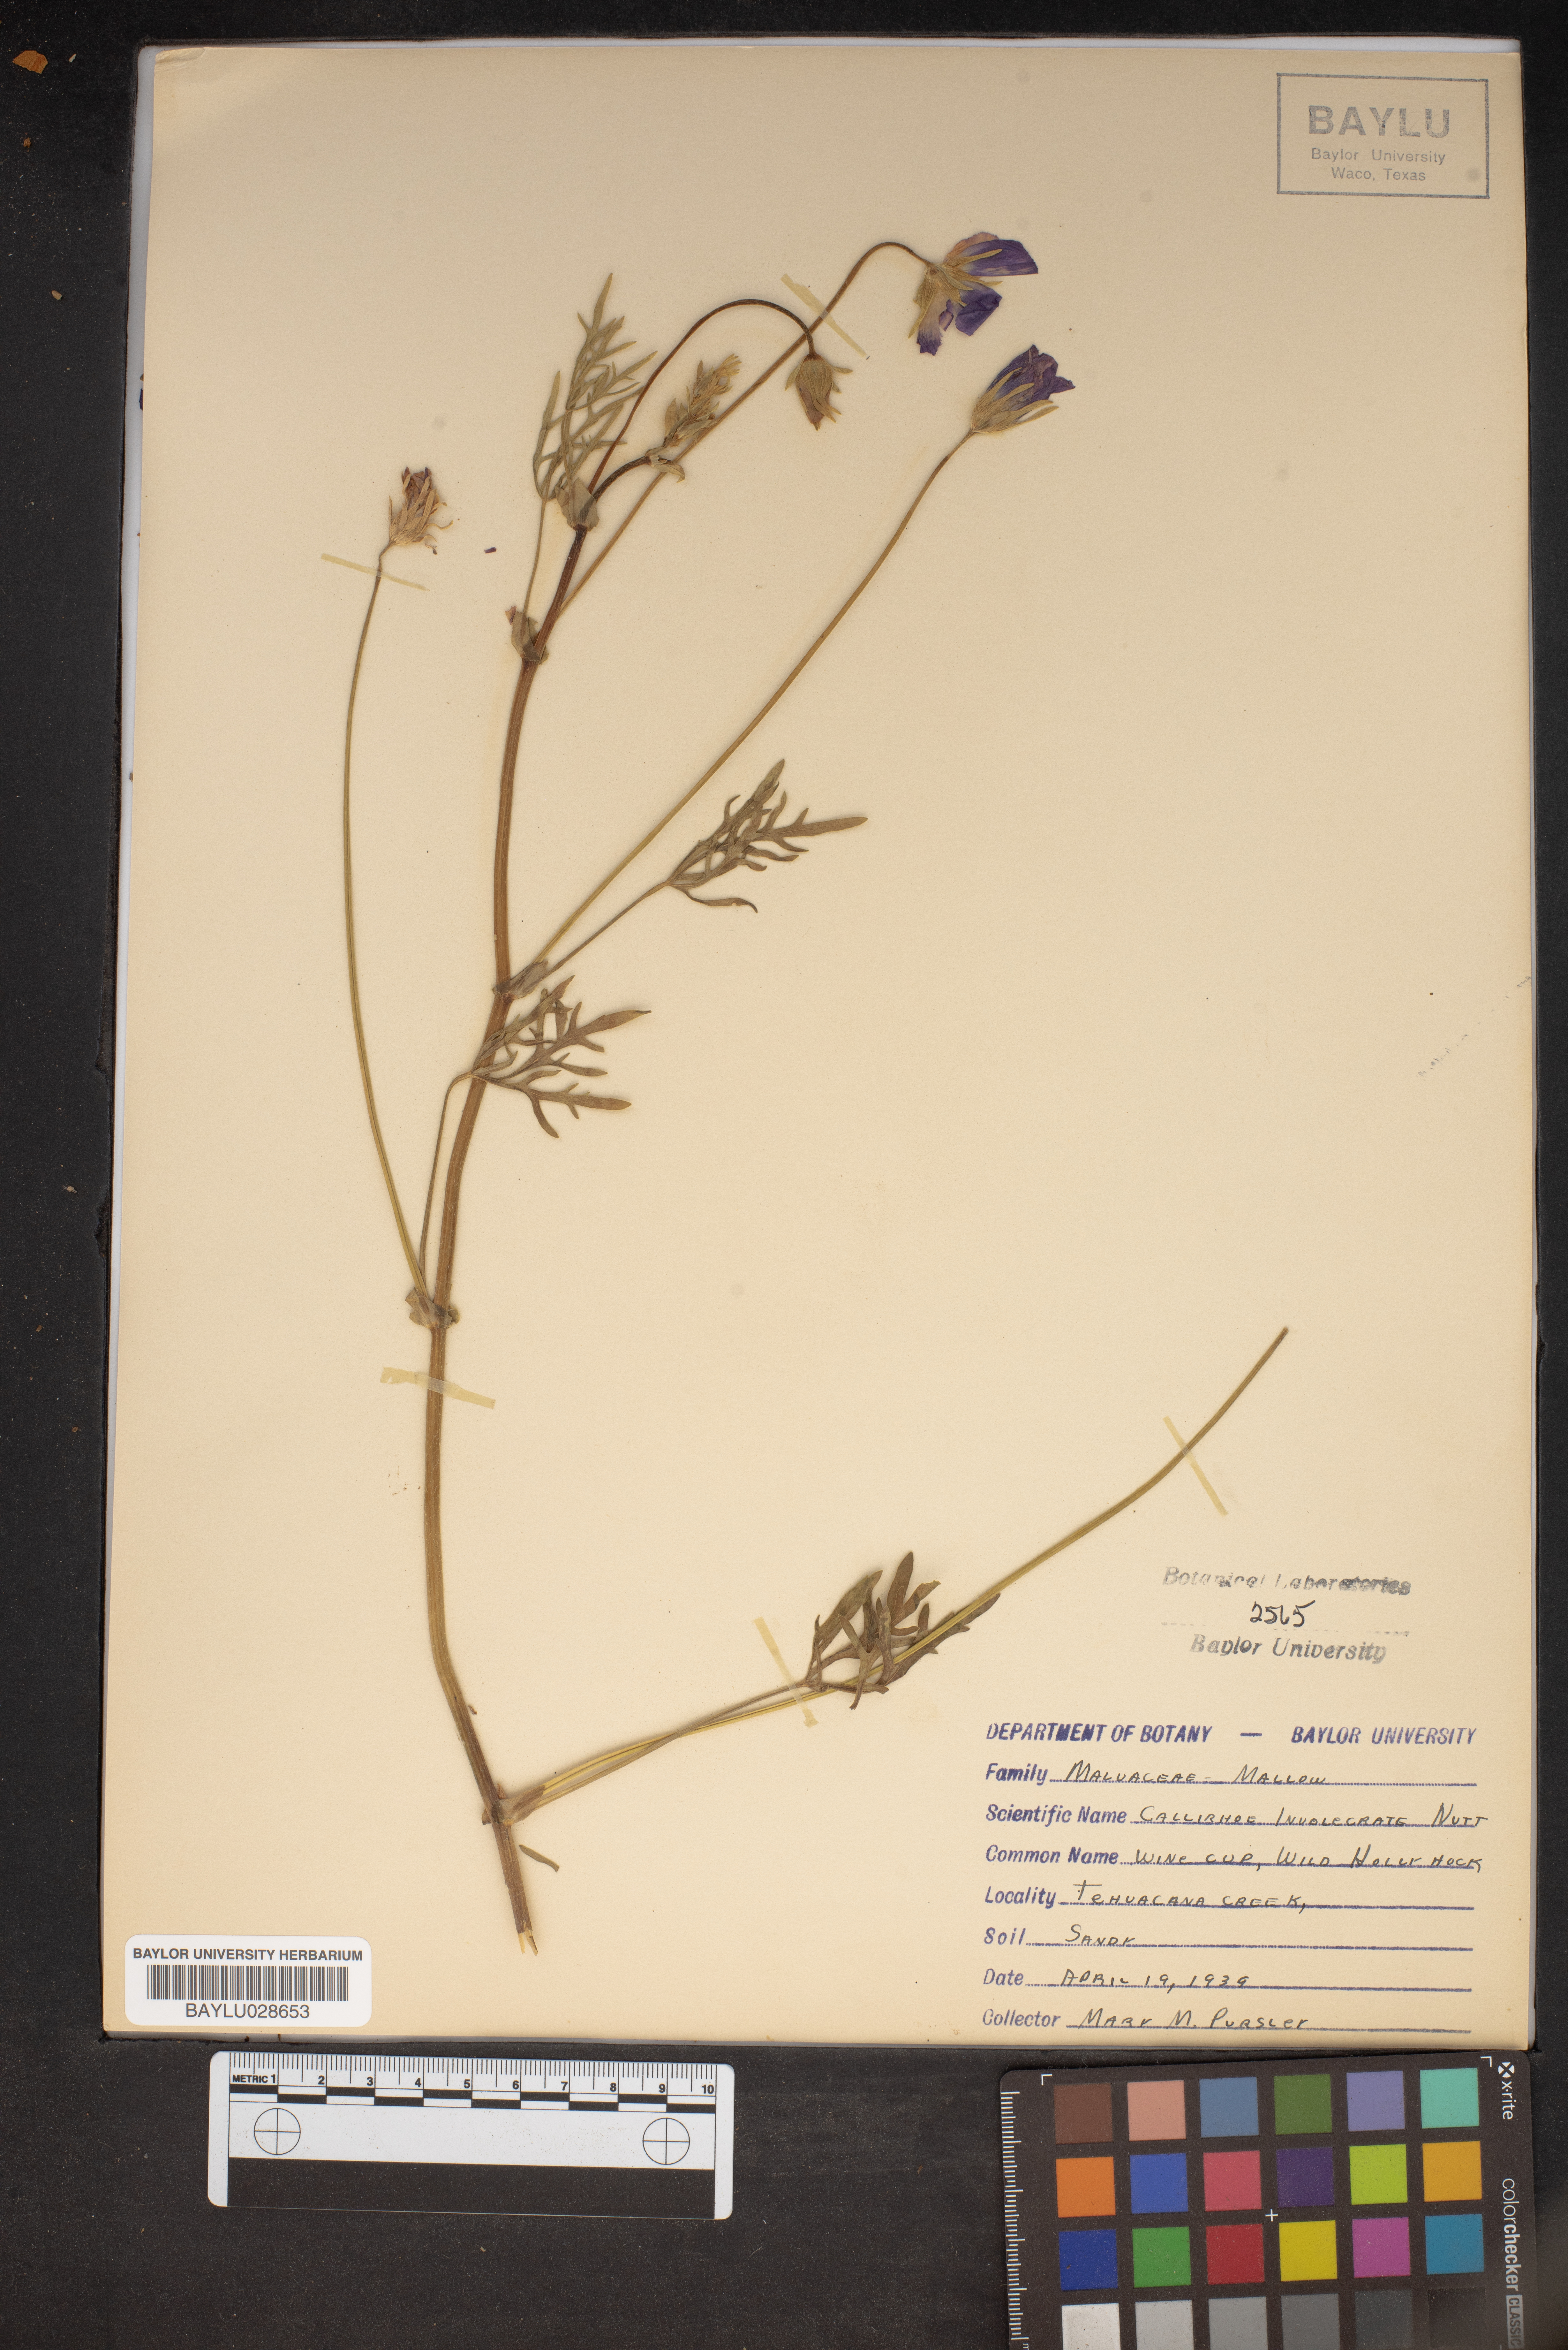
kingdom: Plantae
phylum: Tracheophyta
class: Magnoliopsida
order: Malvales
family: Malvaceae
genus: Callirhoe
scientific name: Callirhoe involucrata
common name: Purple poppy-mallow
